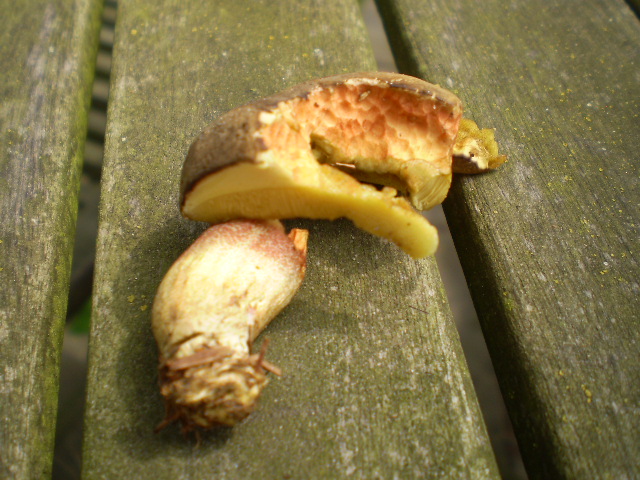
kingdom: Fungi
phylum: Basidiomycota
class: Agaricomycetes
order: Boletales
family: Boletaceae
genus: Xerocomellus
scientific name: Xerocomellus chrysenteron
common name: rødsprukken rørhat
